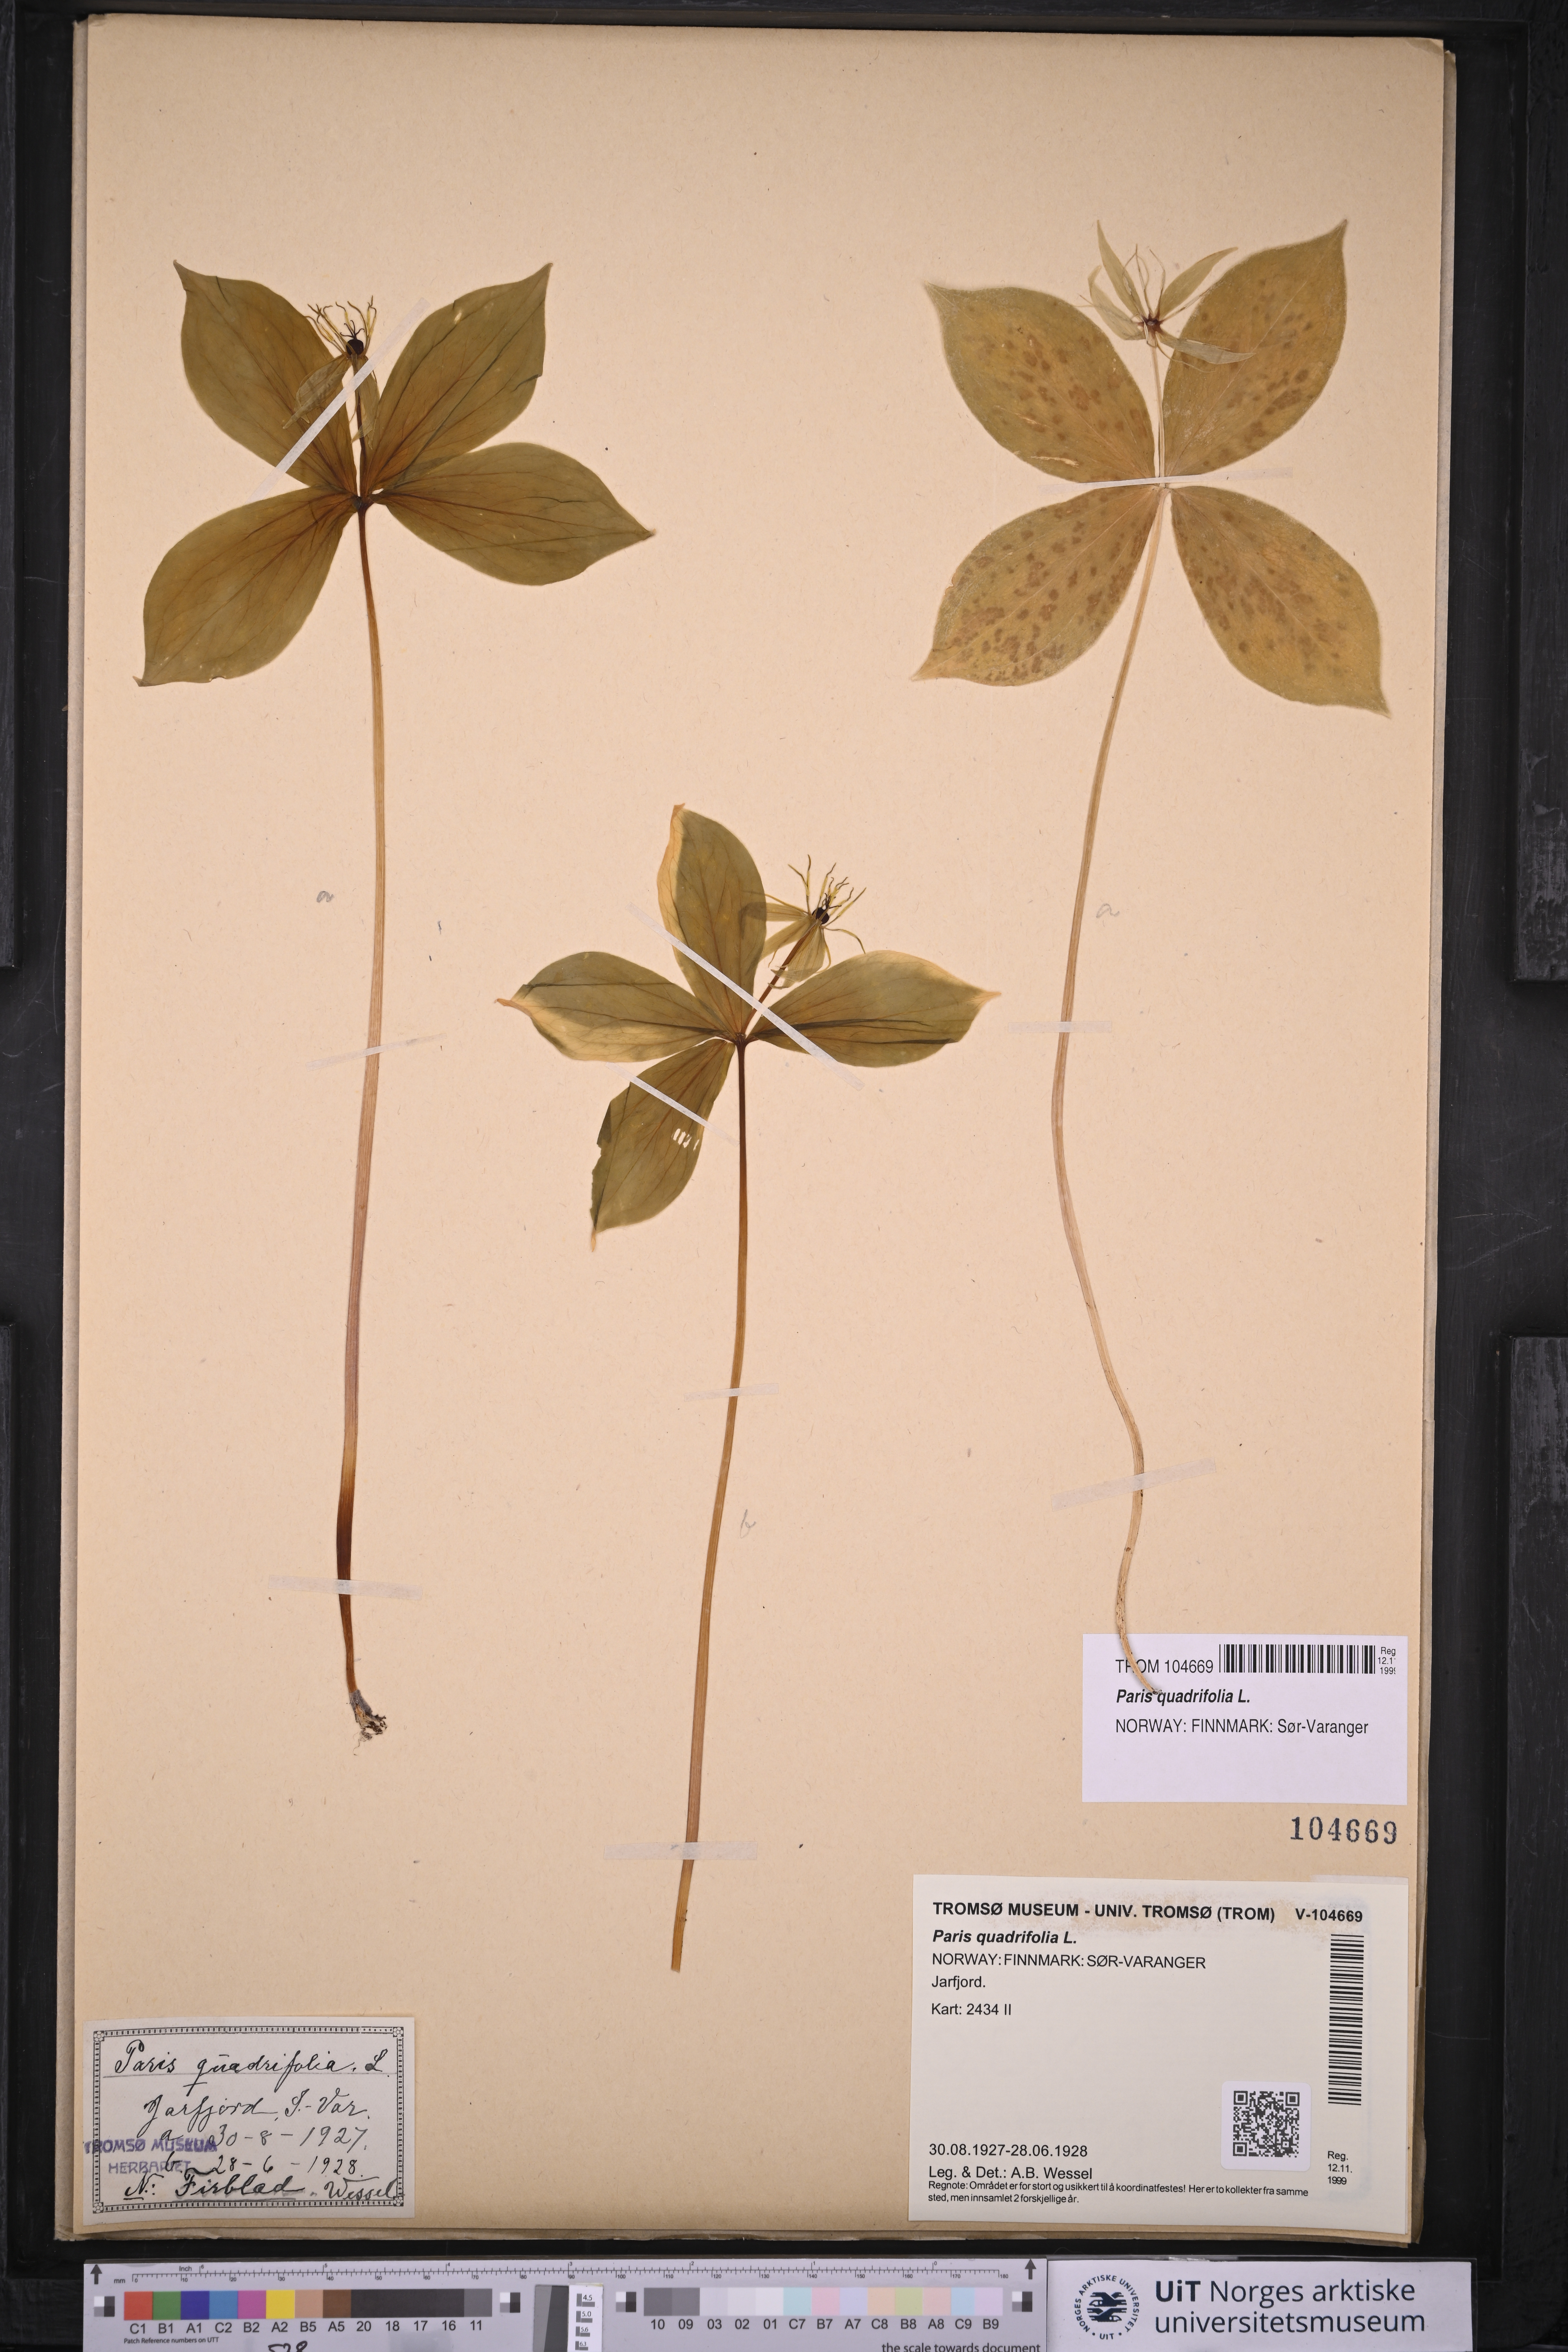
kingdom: Plantae
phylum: Tracheophyta
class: Liliopsida
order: Liliales
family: Melanthiaceae
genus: Paris
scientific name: Paris quadrifolia
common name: Herb-paris
